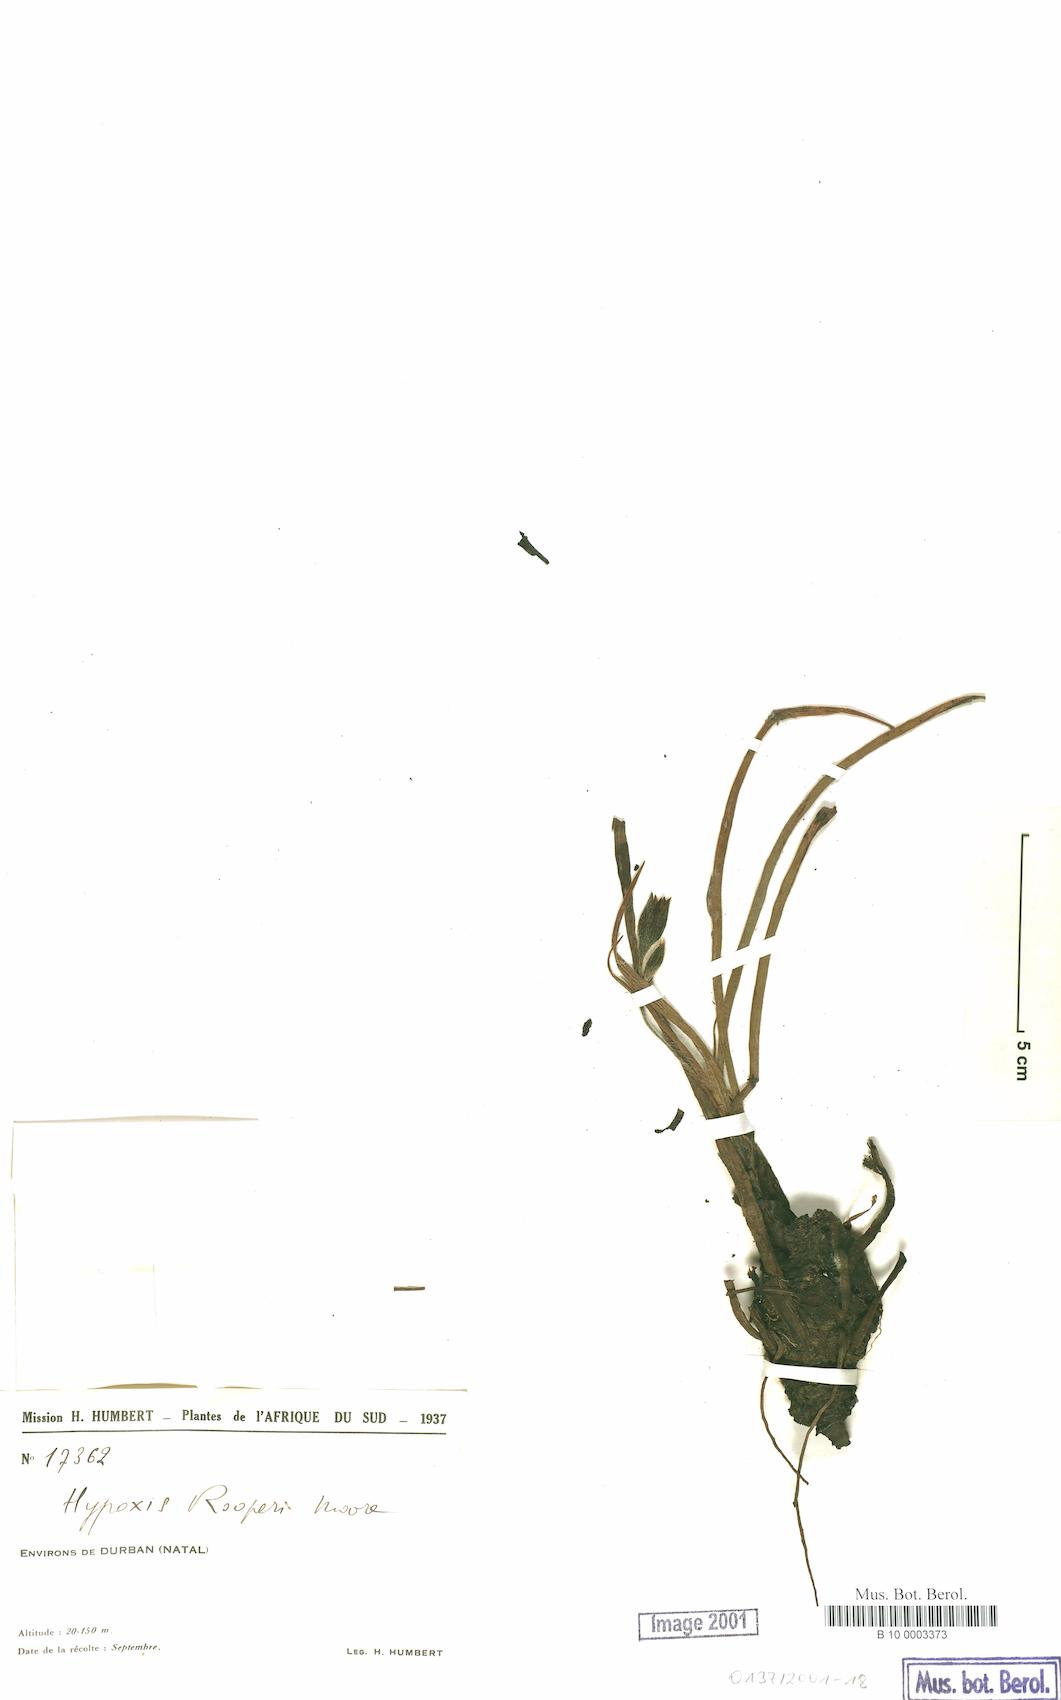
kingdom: Plantae
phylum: Tracheophyta
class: Liliopsida
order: Asparagales
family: Hypoxidaceae
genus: Pauridia
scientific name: Pauridia glabella
